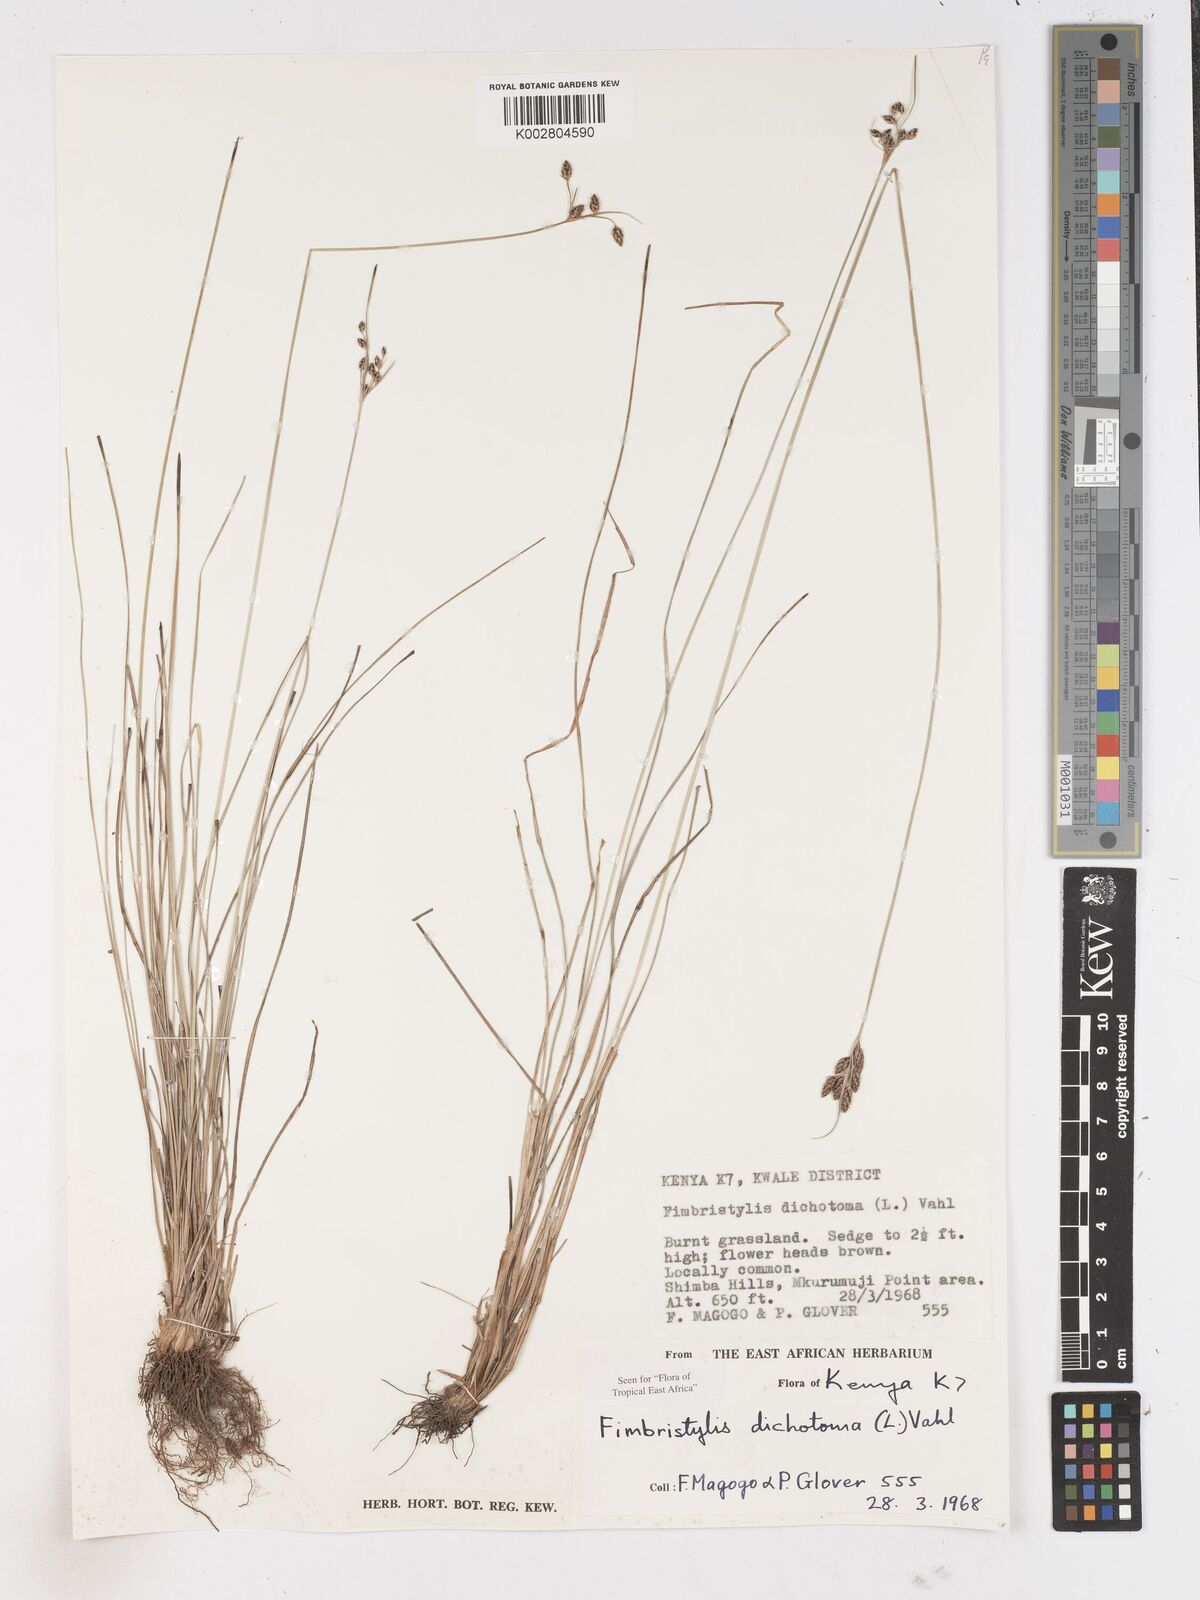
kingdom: Plantae
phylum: Tracheophyta
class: Liliopsida
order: Poales
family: Cyperaceae
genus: Fimbristylis
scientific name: Fimbristylis dichotoma
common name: Forked fimbry
